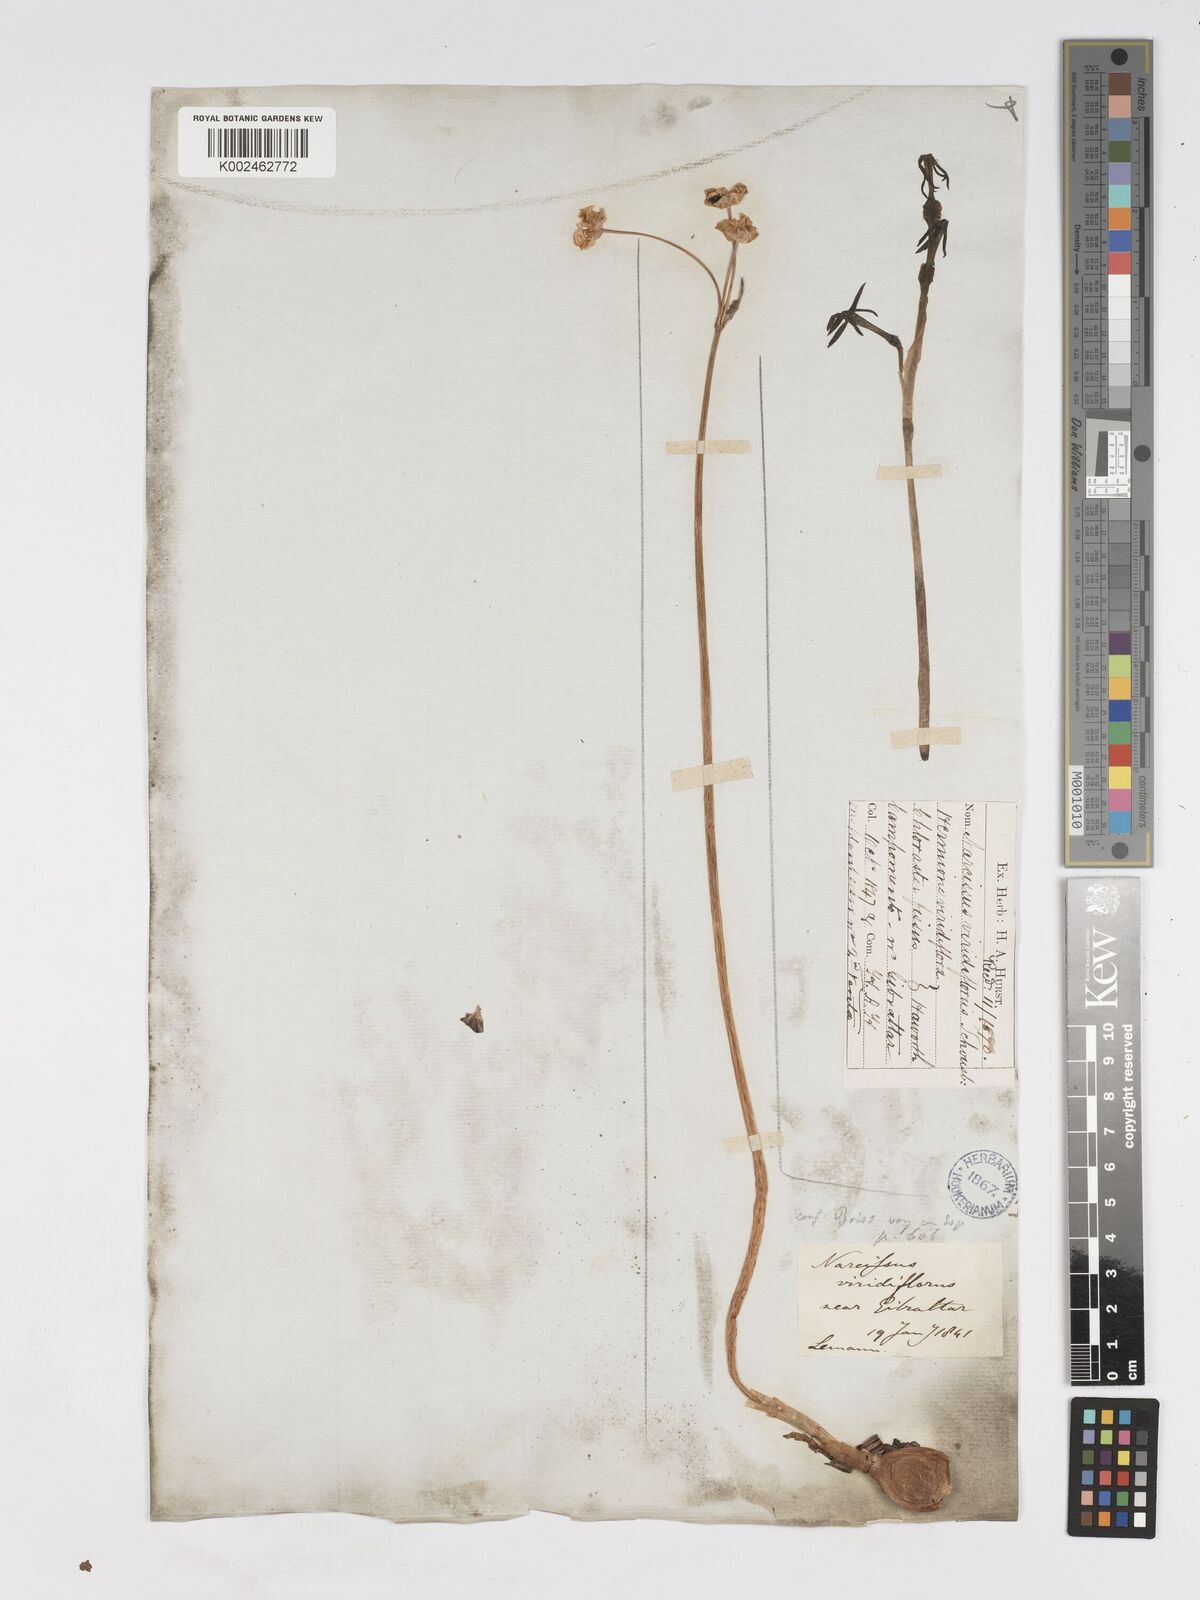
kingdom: Plantae
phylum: Tracheophyta
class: Liliopsida
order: Asparagales
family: Amaryllidaceae
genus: Narcissus
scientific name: Narcissus viridiflorus
